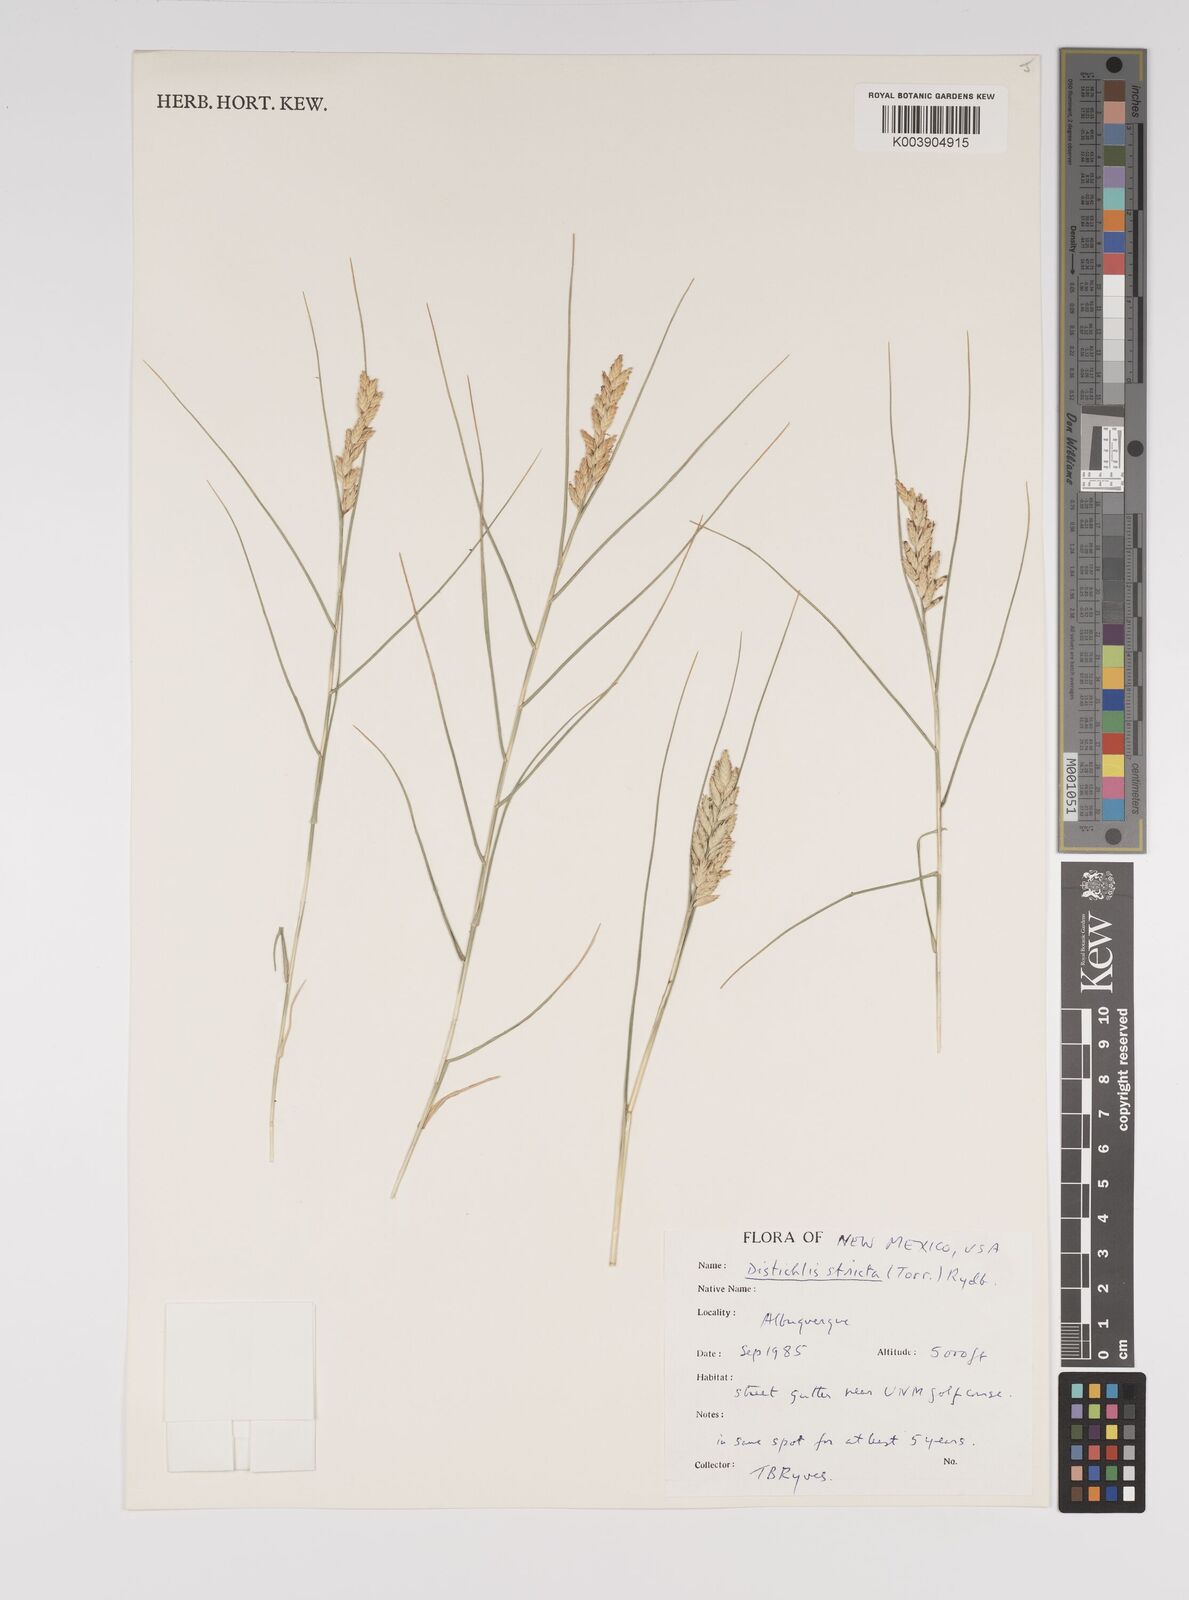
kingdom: Plantae
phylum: Tracheophyta
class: Liliopsida
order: Poales
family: Poaceae
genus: Distichlis
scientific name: Distichlis spicata
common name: Saltgrass
